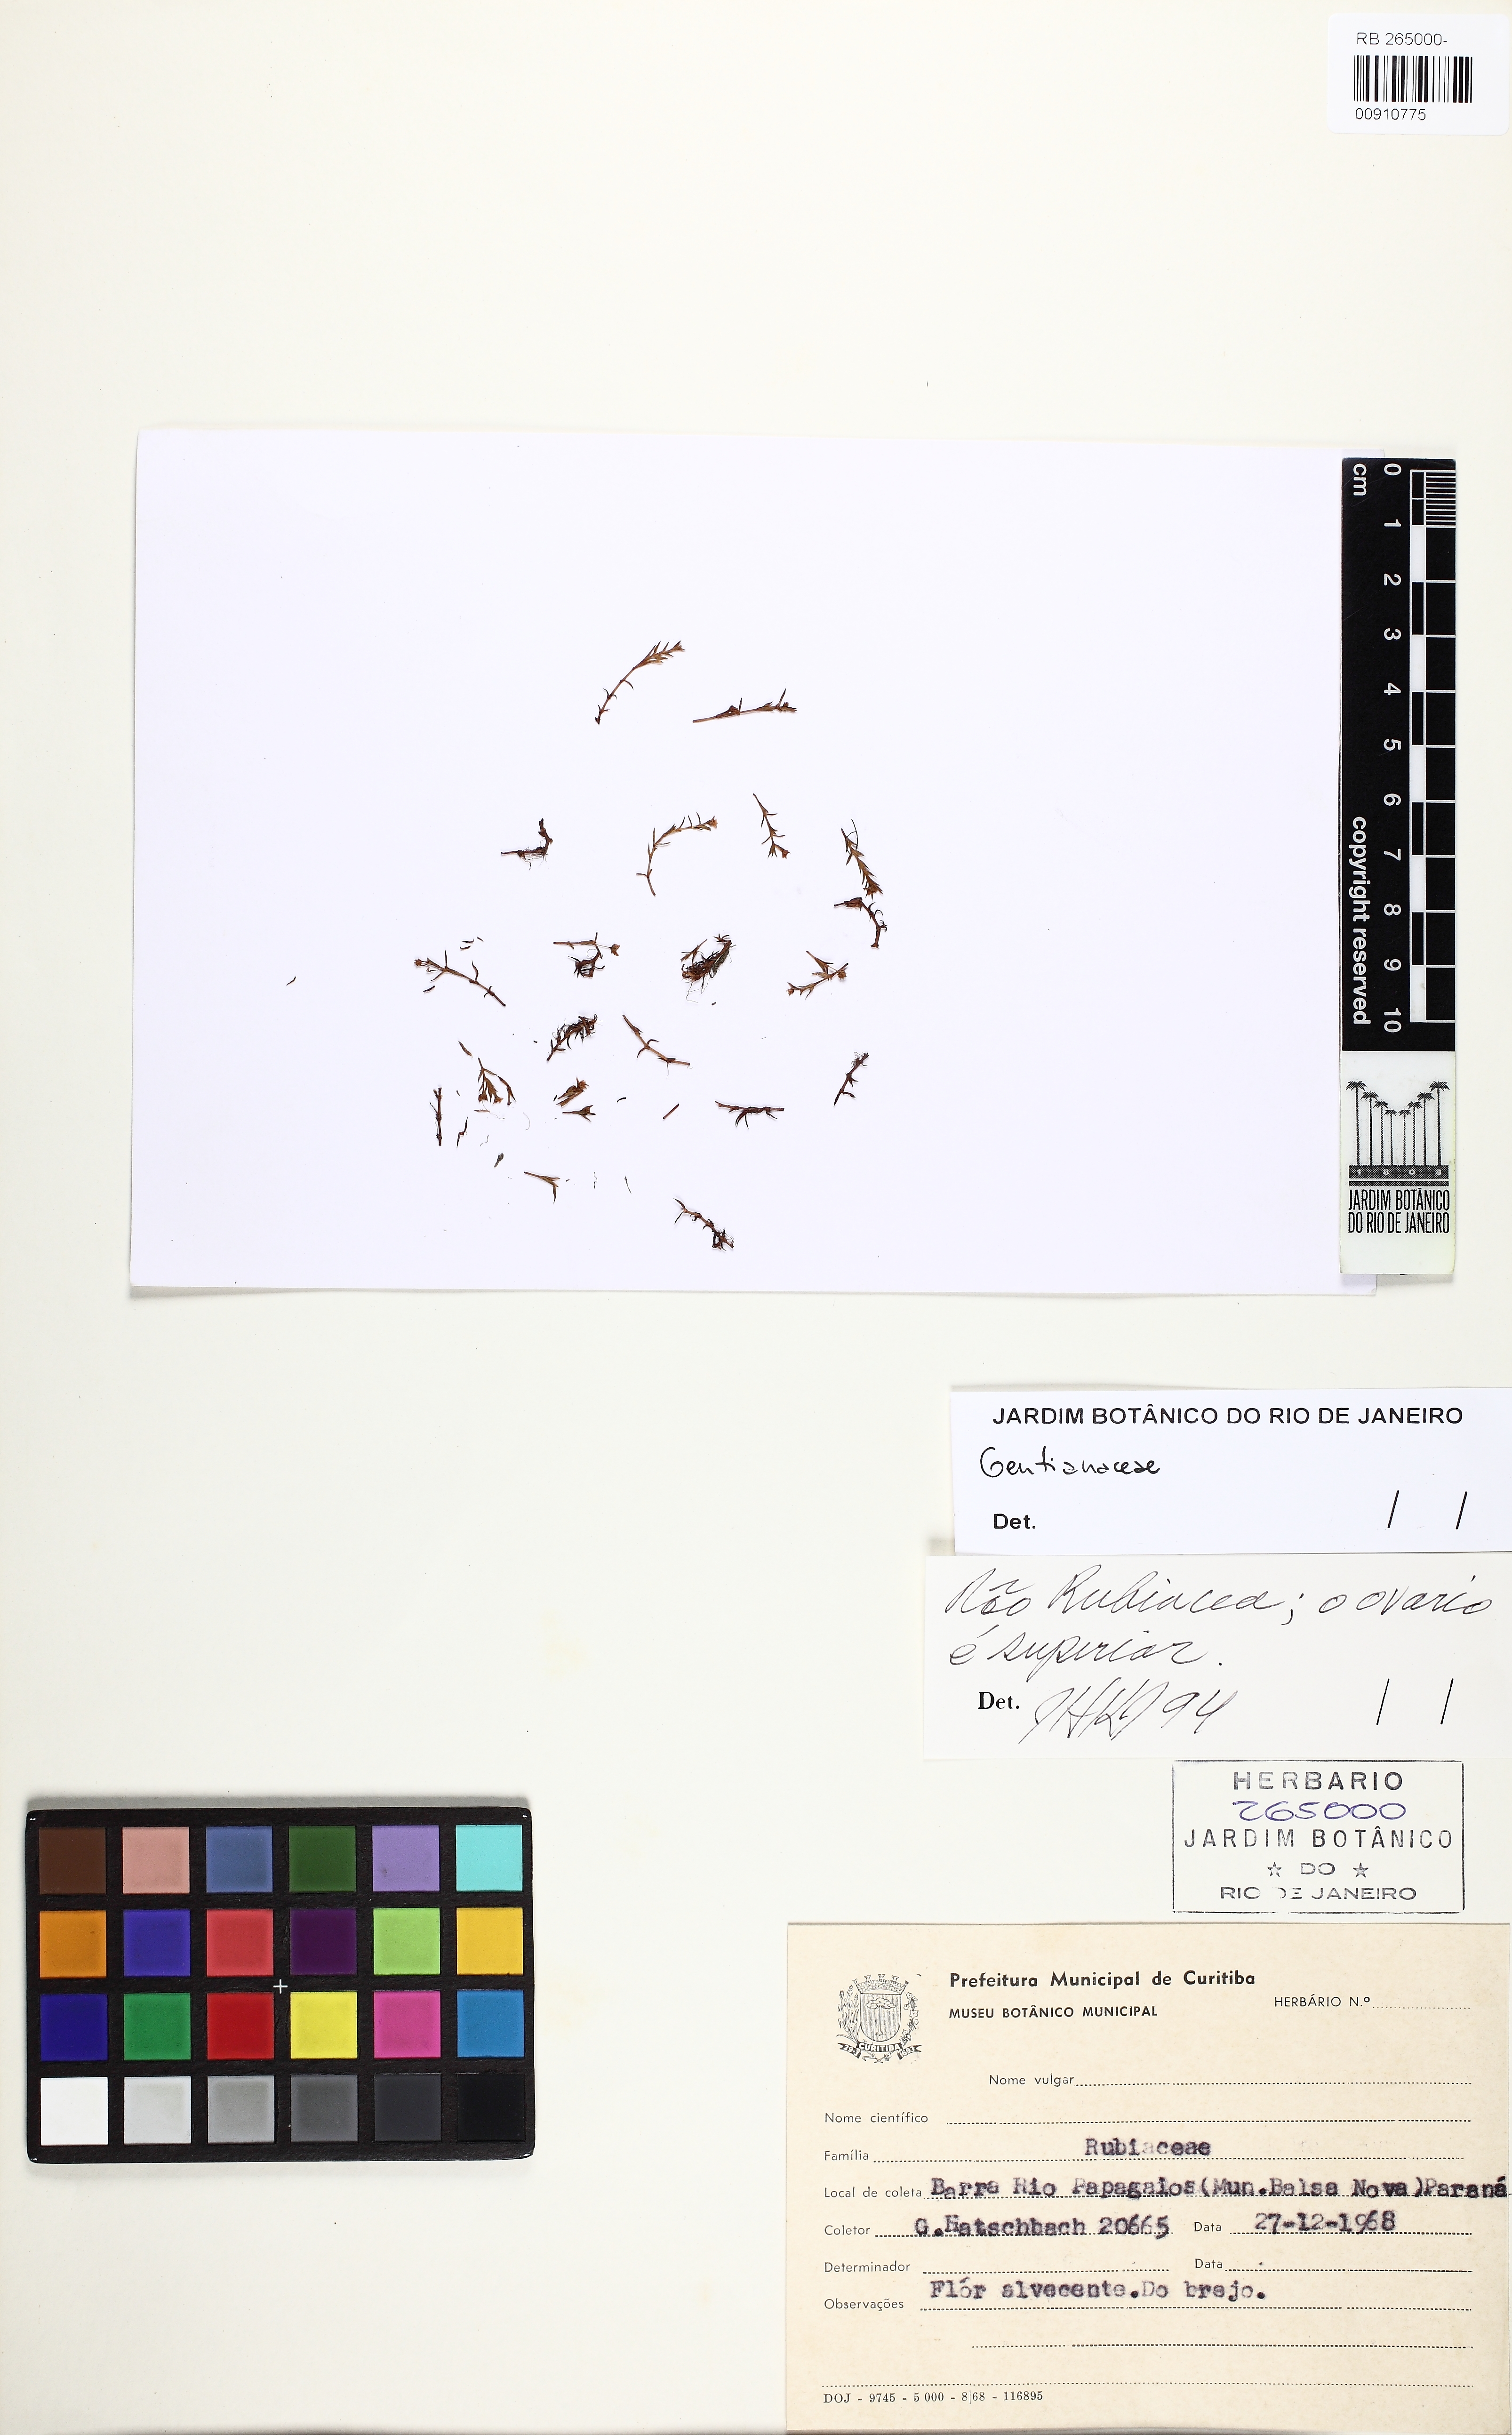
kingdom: Plantae
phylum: Tracheophyta
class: Magnoliopsida
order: Gentianales
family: Gentianaceae
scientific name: Gentianaceae
